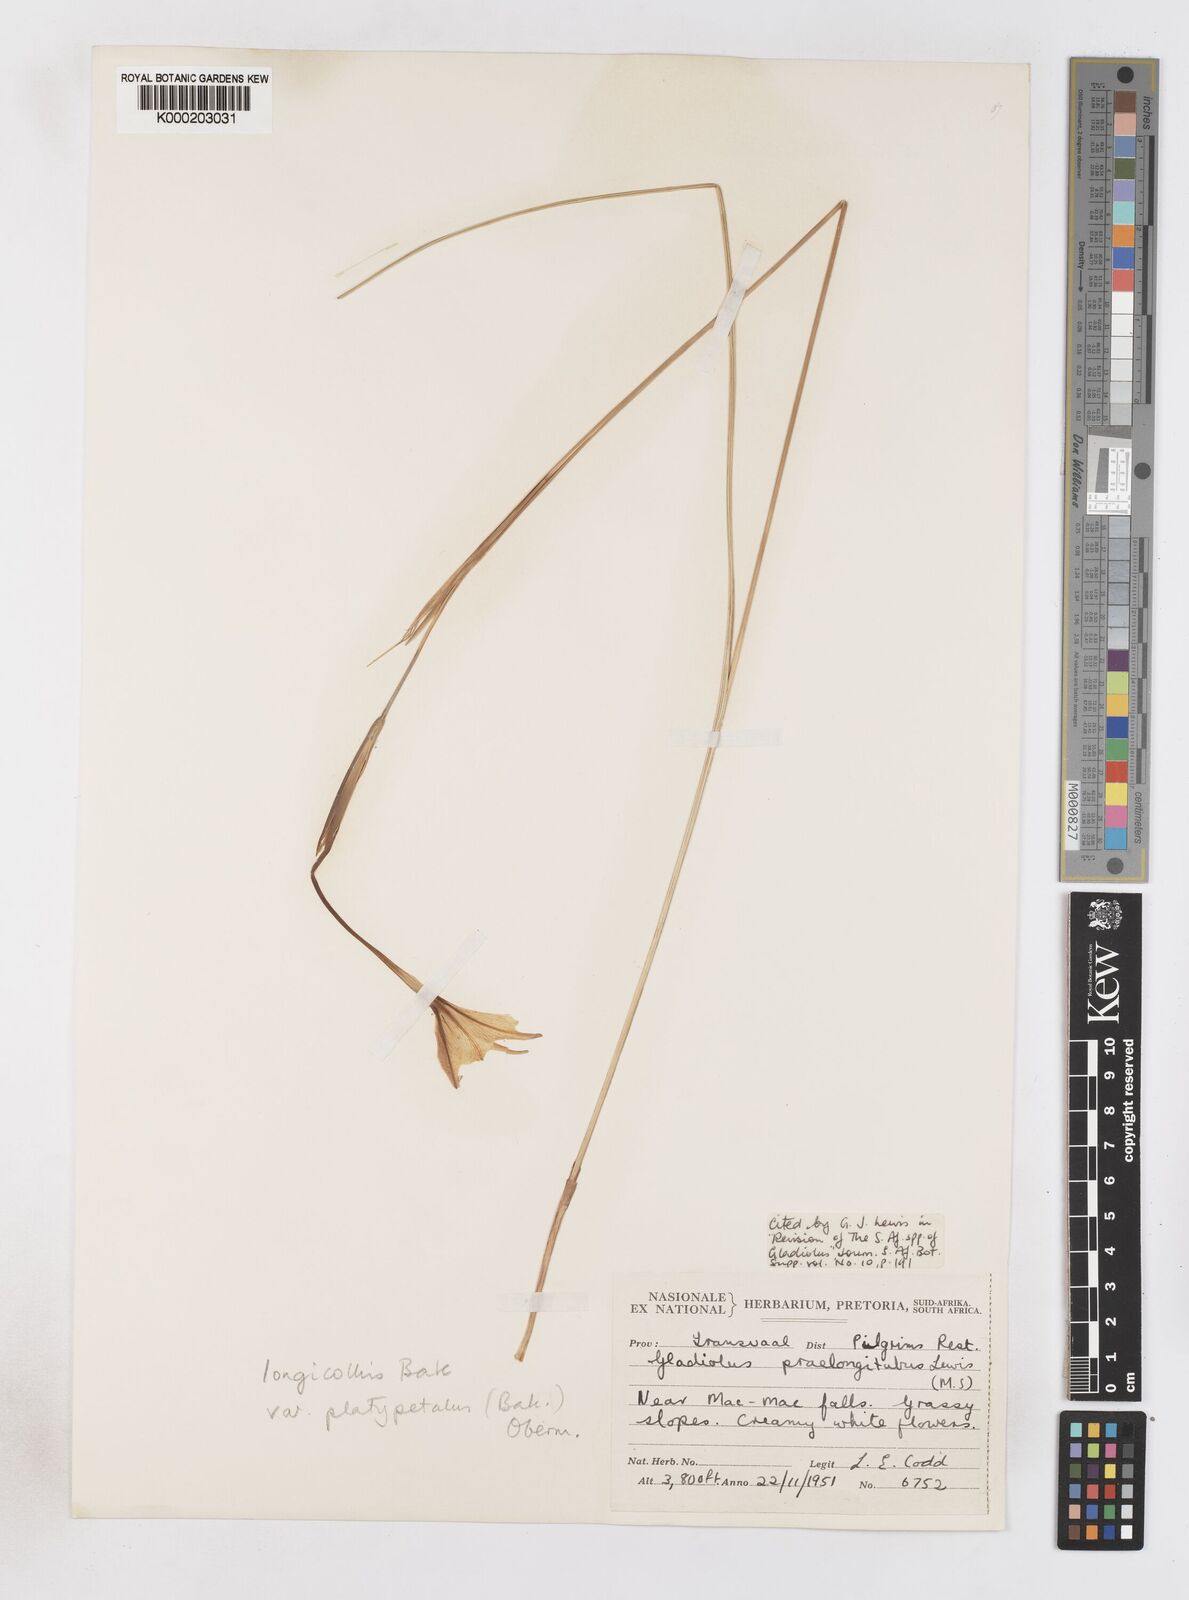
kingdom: Plantae
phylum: Tracheophyta
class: Liliopsida
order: Asparagales
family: Iridaceae
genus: Gladiolus
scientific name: Gladiolus longicollis
